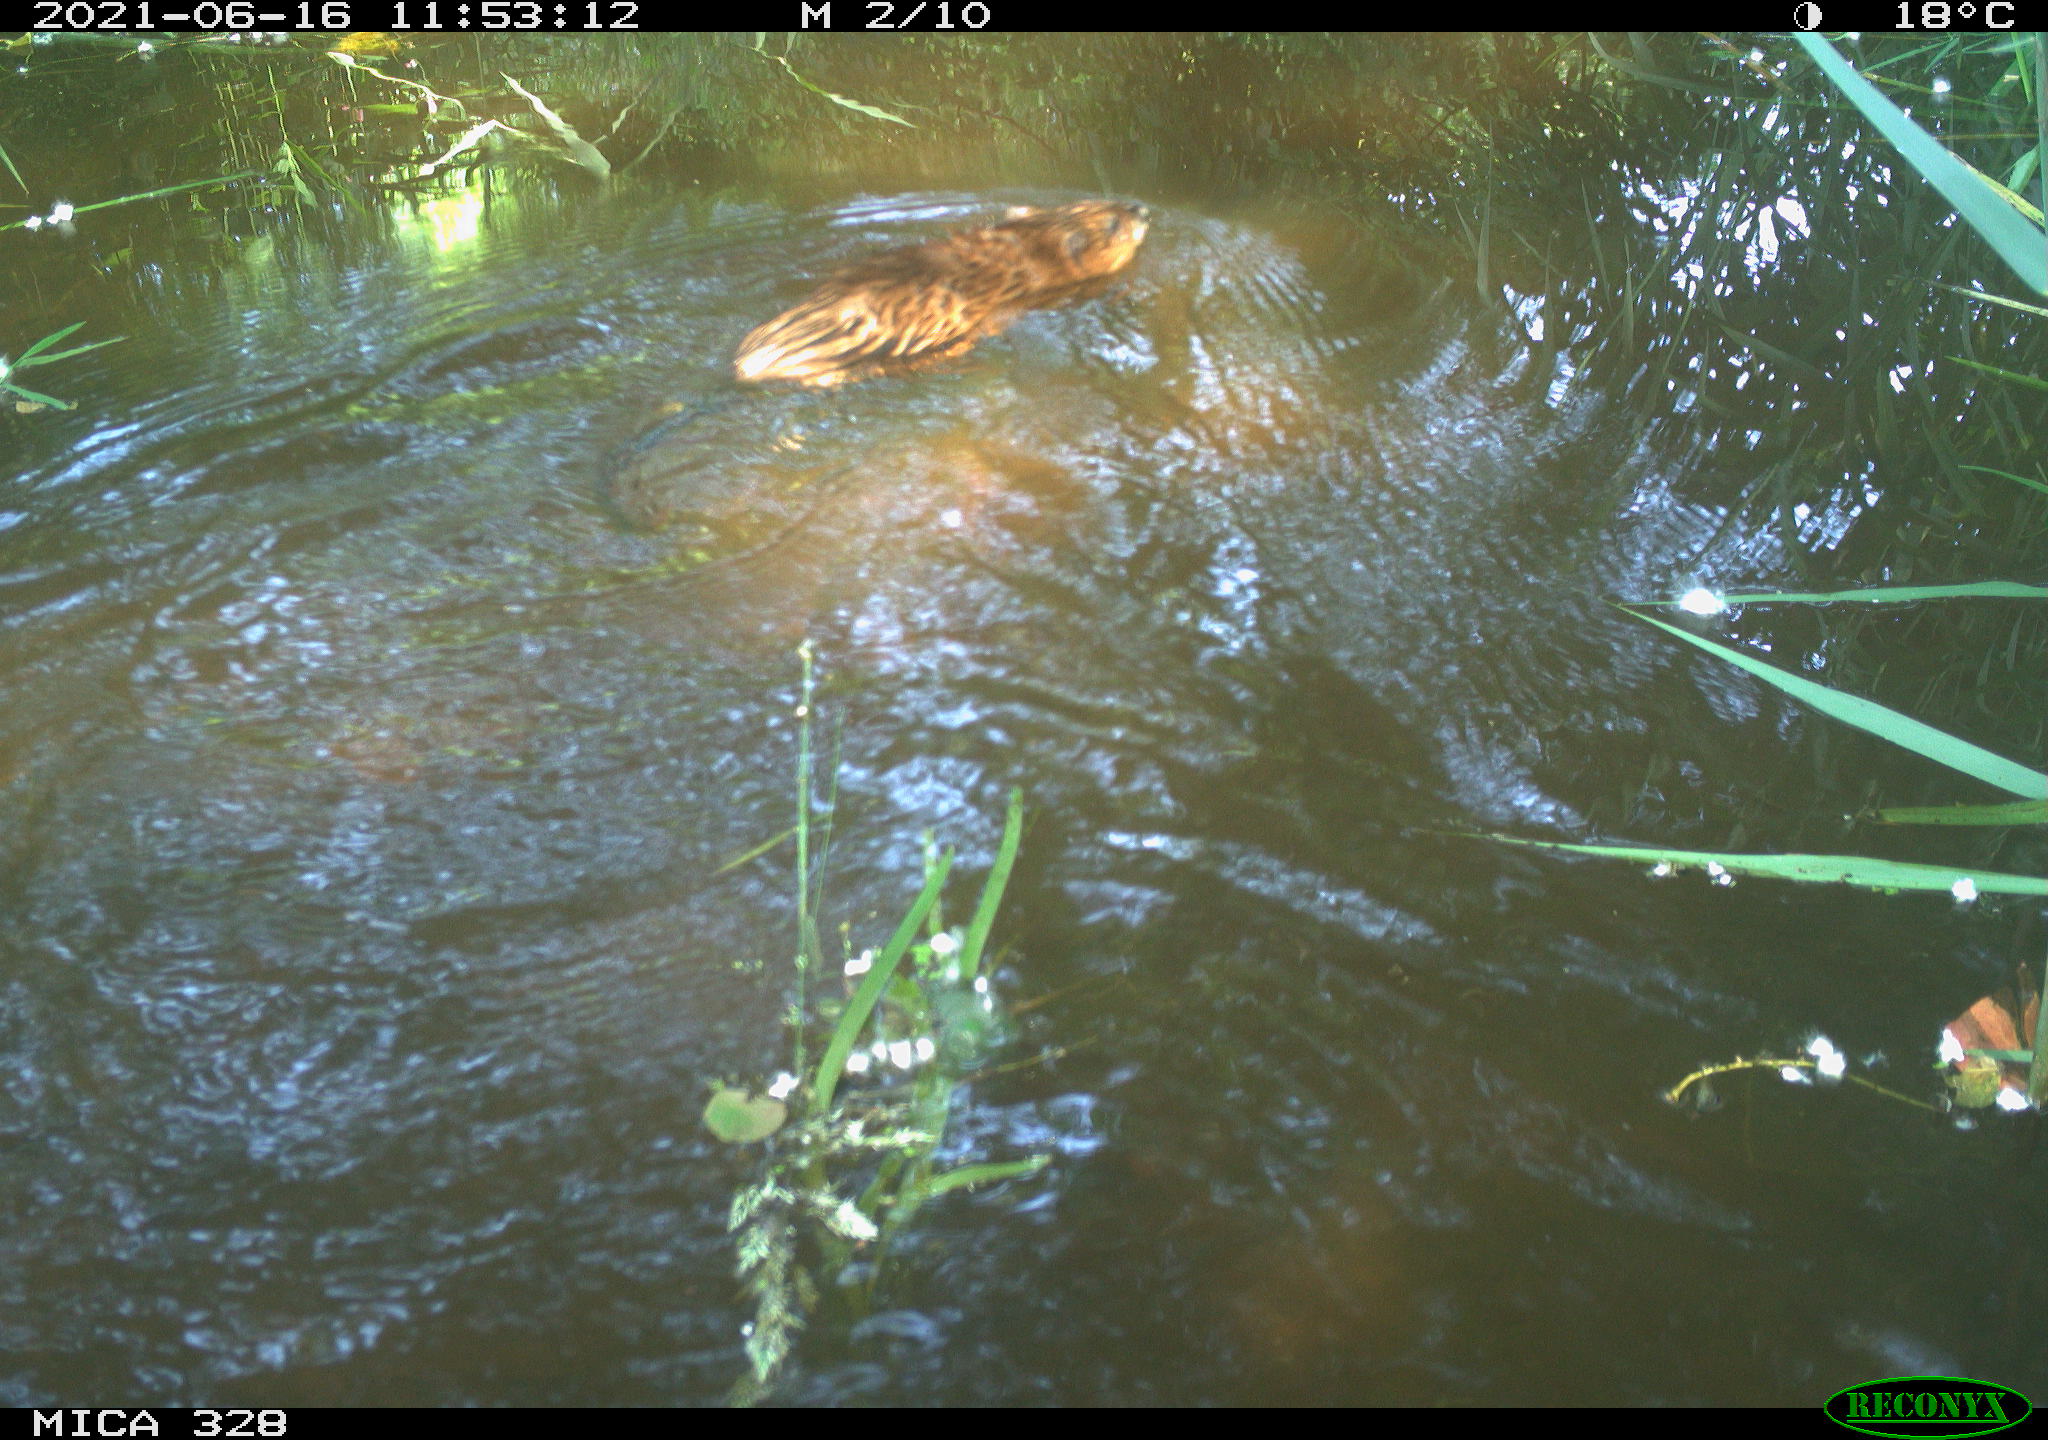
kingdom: Animalia
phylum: Chordata
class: Mammalia
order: Rodentia
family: Cricetidae
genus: Ondatra
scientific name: Ondatra zibethicus
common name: Muskrat
